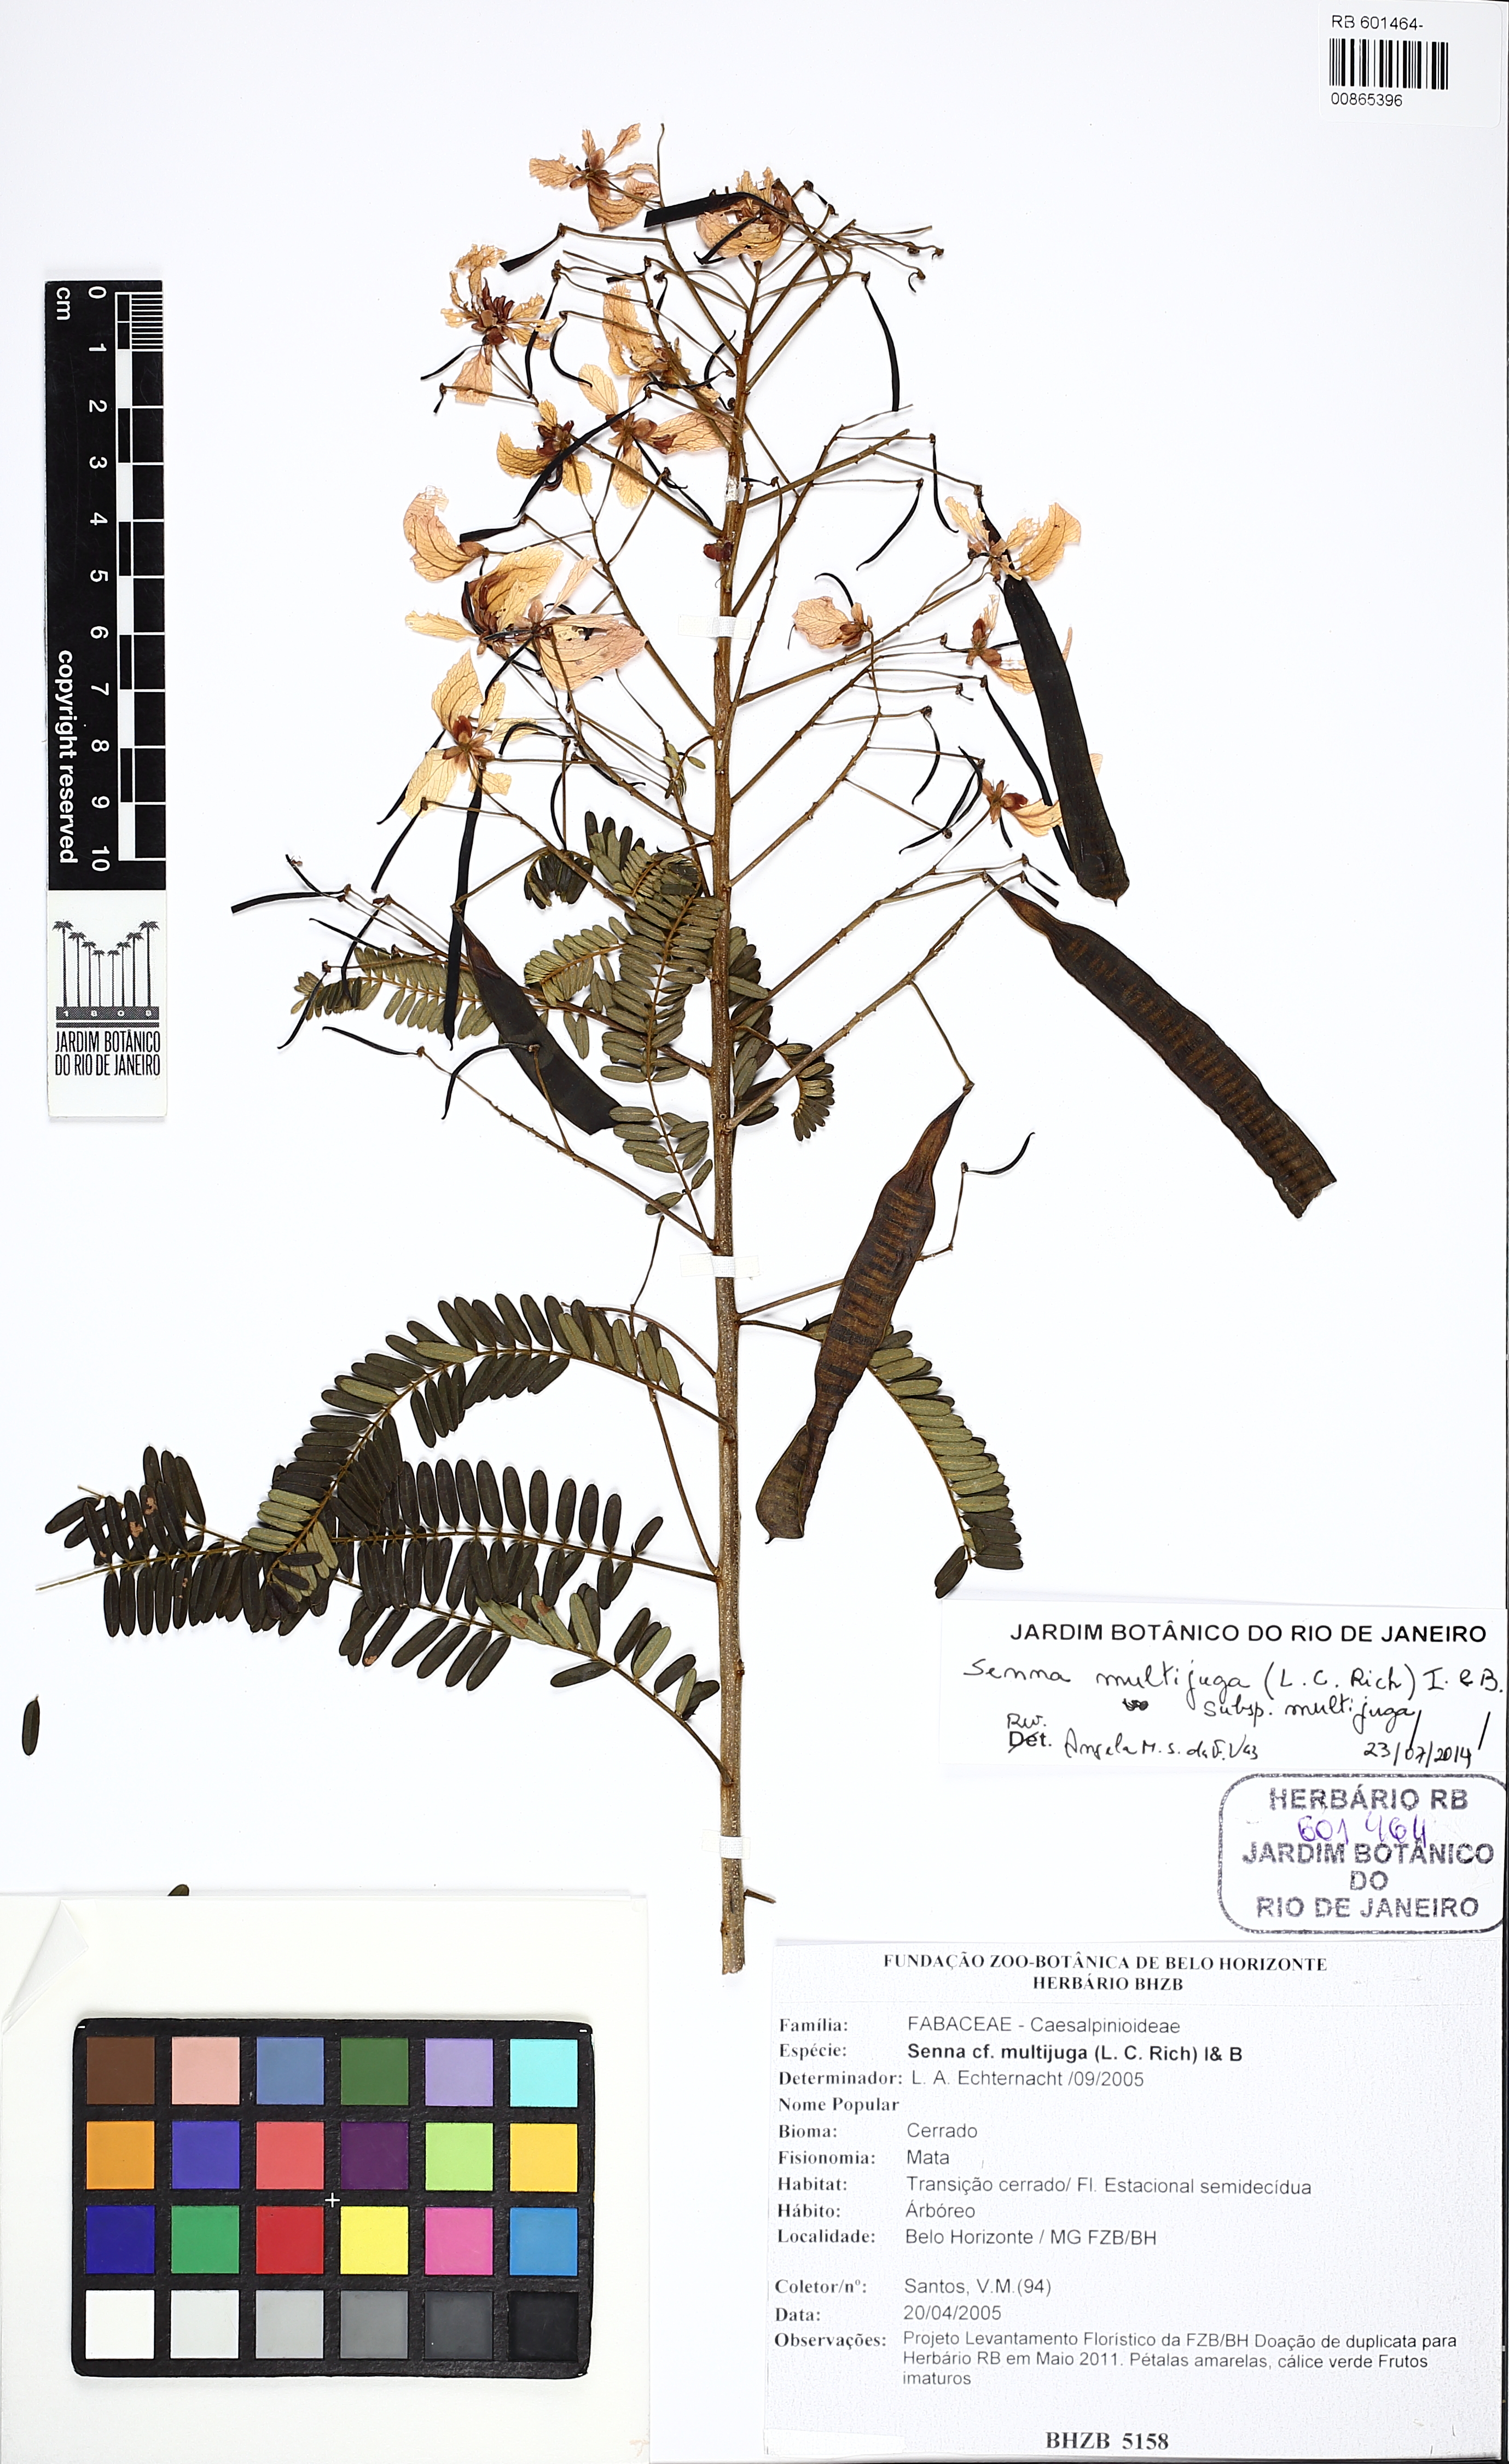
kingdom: Plantae
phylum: Tracheophyta
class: Magnoliopsida
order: Fabales
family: Fabaceae
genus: Senna
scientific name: Senna multijuga
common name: False sicklepod
